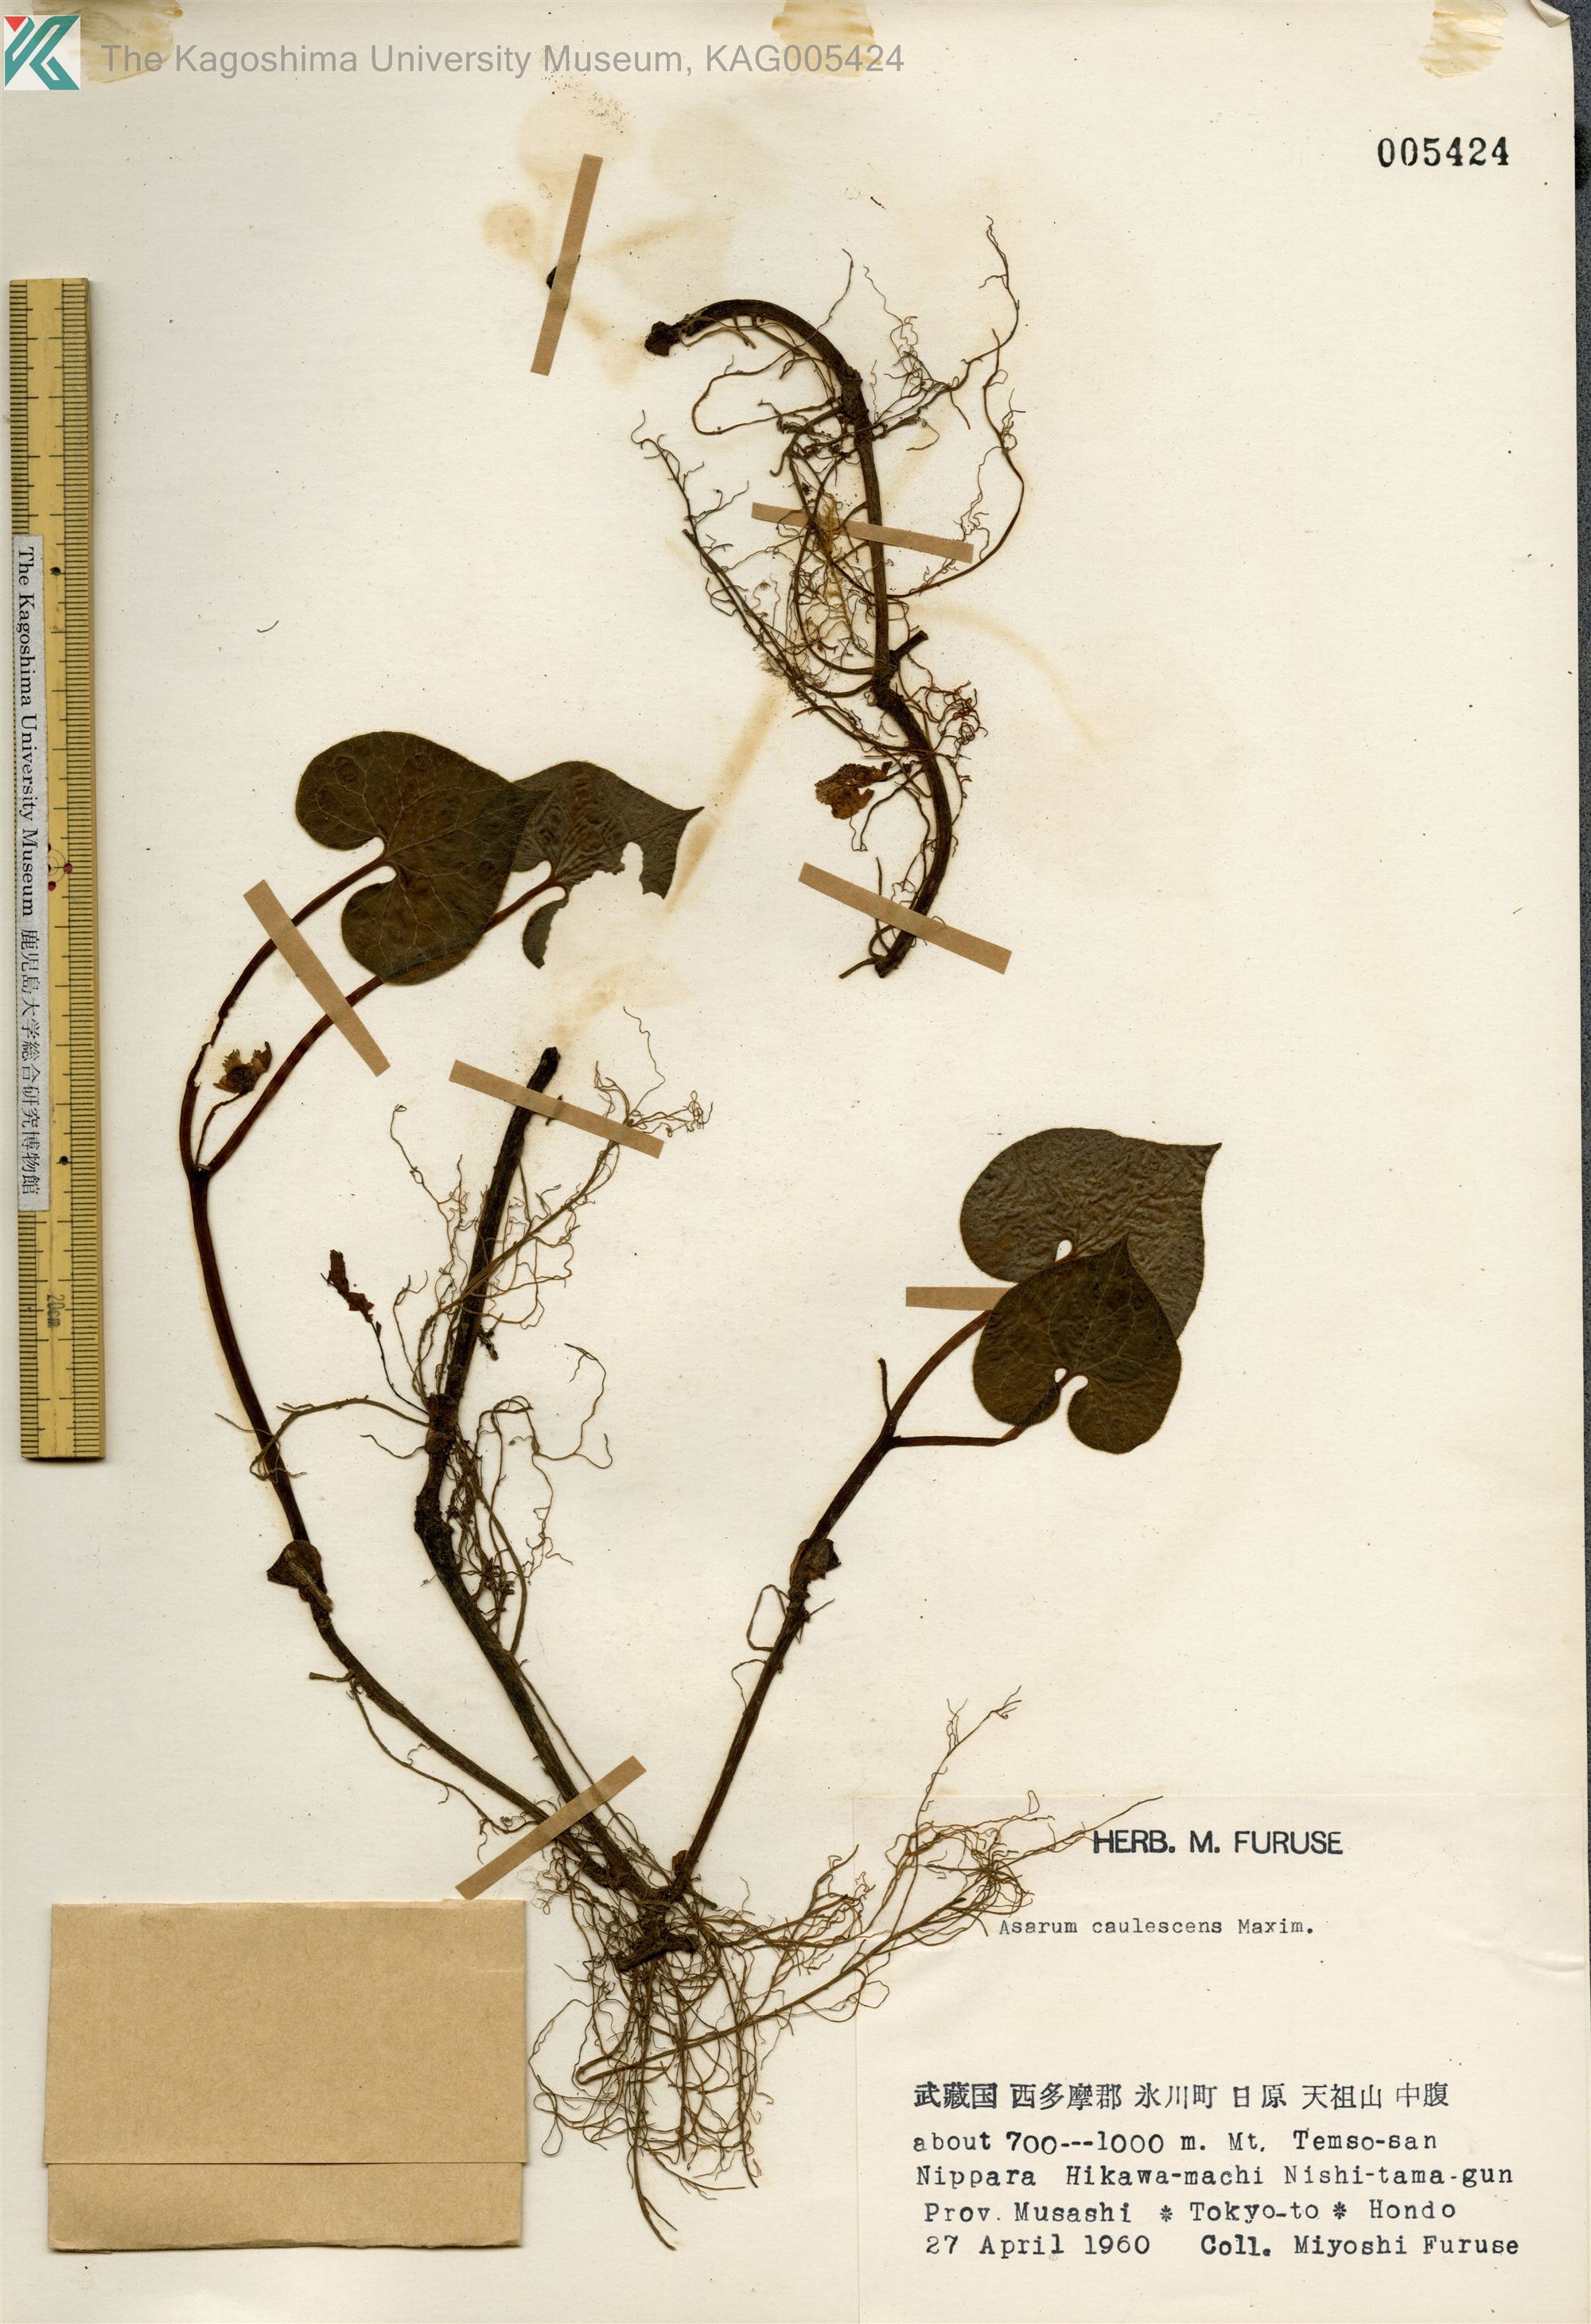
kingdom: Plantae
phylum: Tracheophyta
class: Magnoliopsida
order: Piperales
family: Aristolochiaceae
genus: Asarum
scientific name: Asarum caulescens
